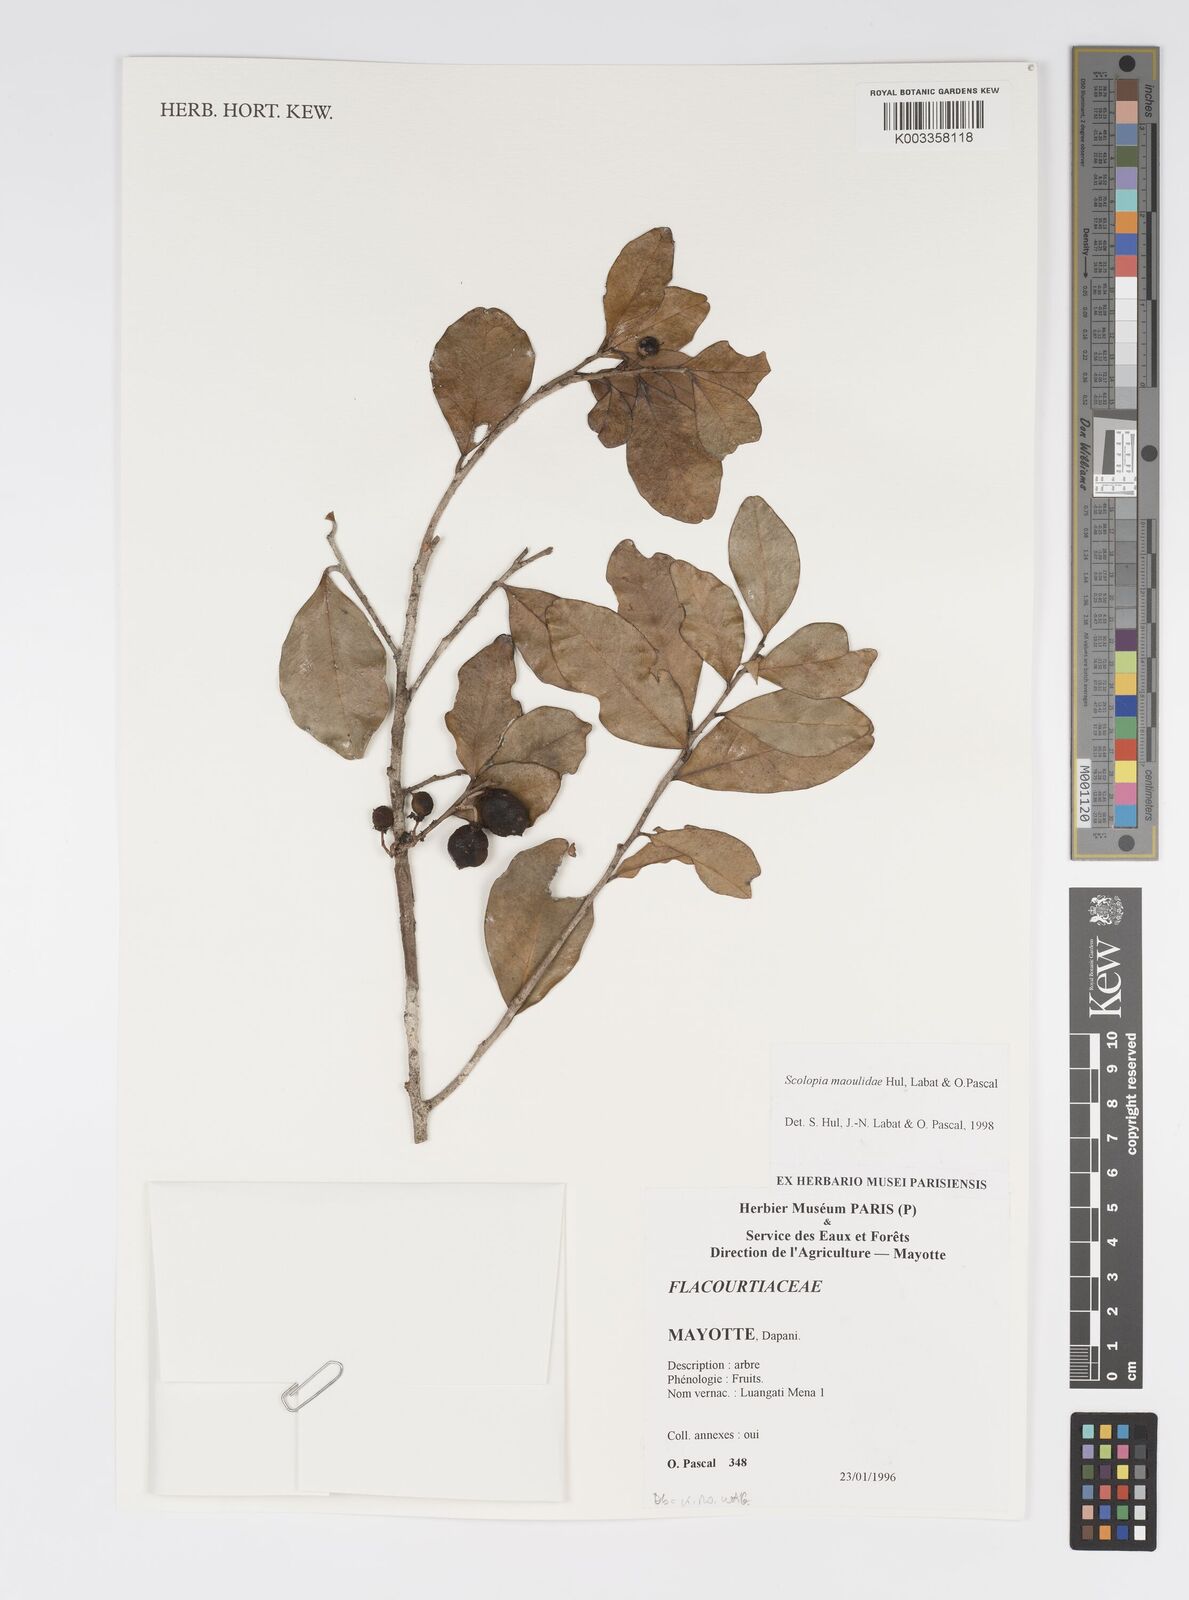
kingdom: Plantae
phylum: Tracheophyta
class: Magnoliopsida
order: Malpighiales
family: Salicaceae
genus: Scolopia
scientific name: Scolopia maoulidae
